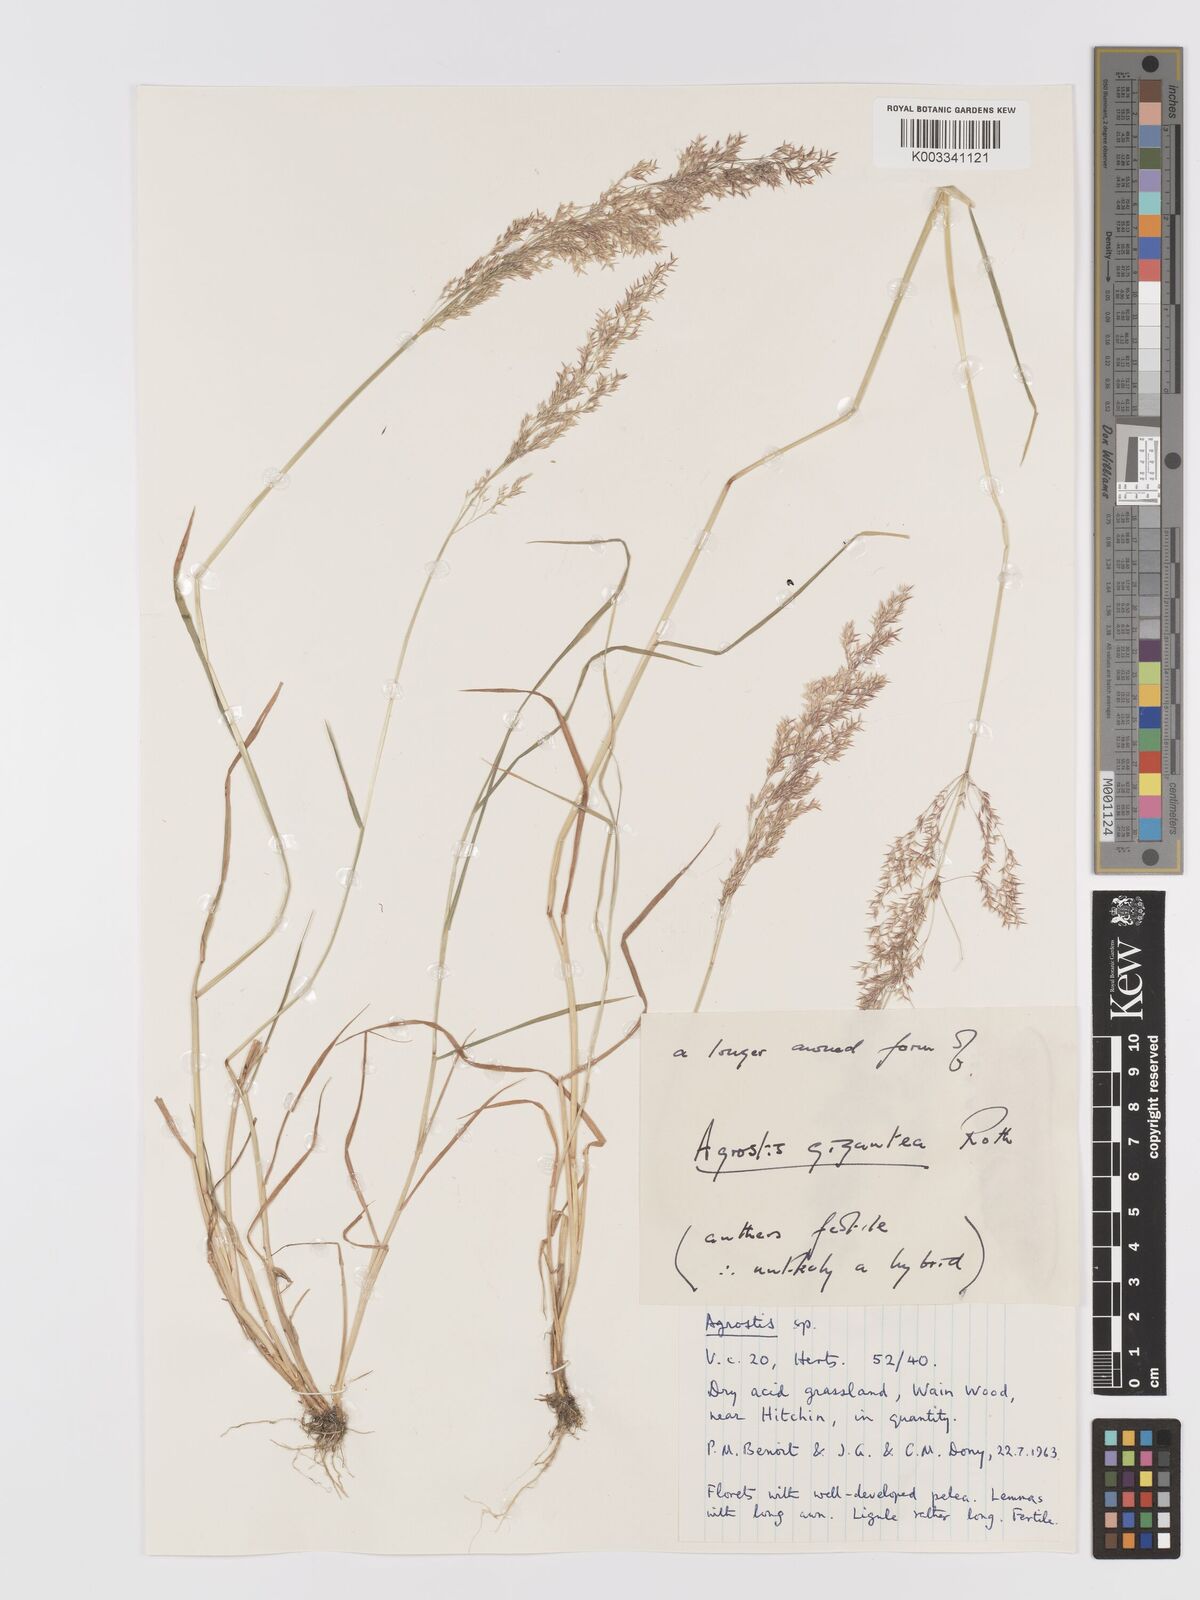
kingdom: Plantae
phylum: Tracheophyta
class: Liliopsida
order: Poales
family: Poaceae
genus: Agrostis
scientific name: Agrostis gigantea
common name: Black bent
